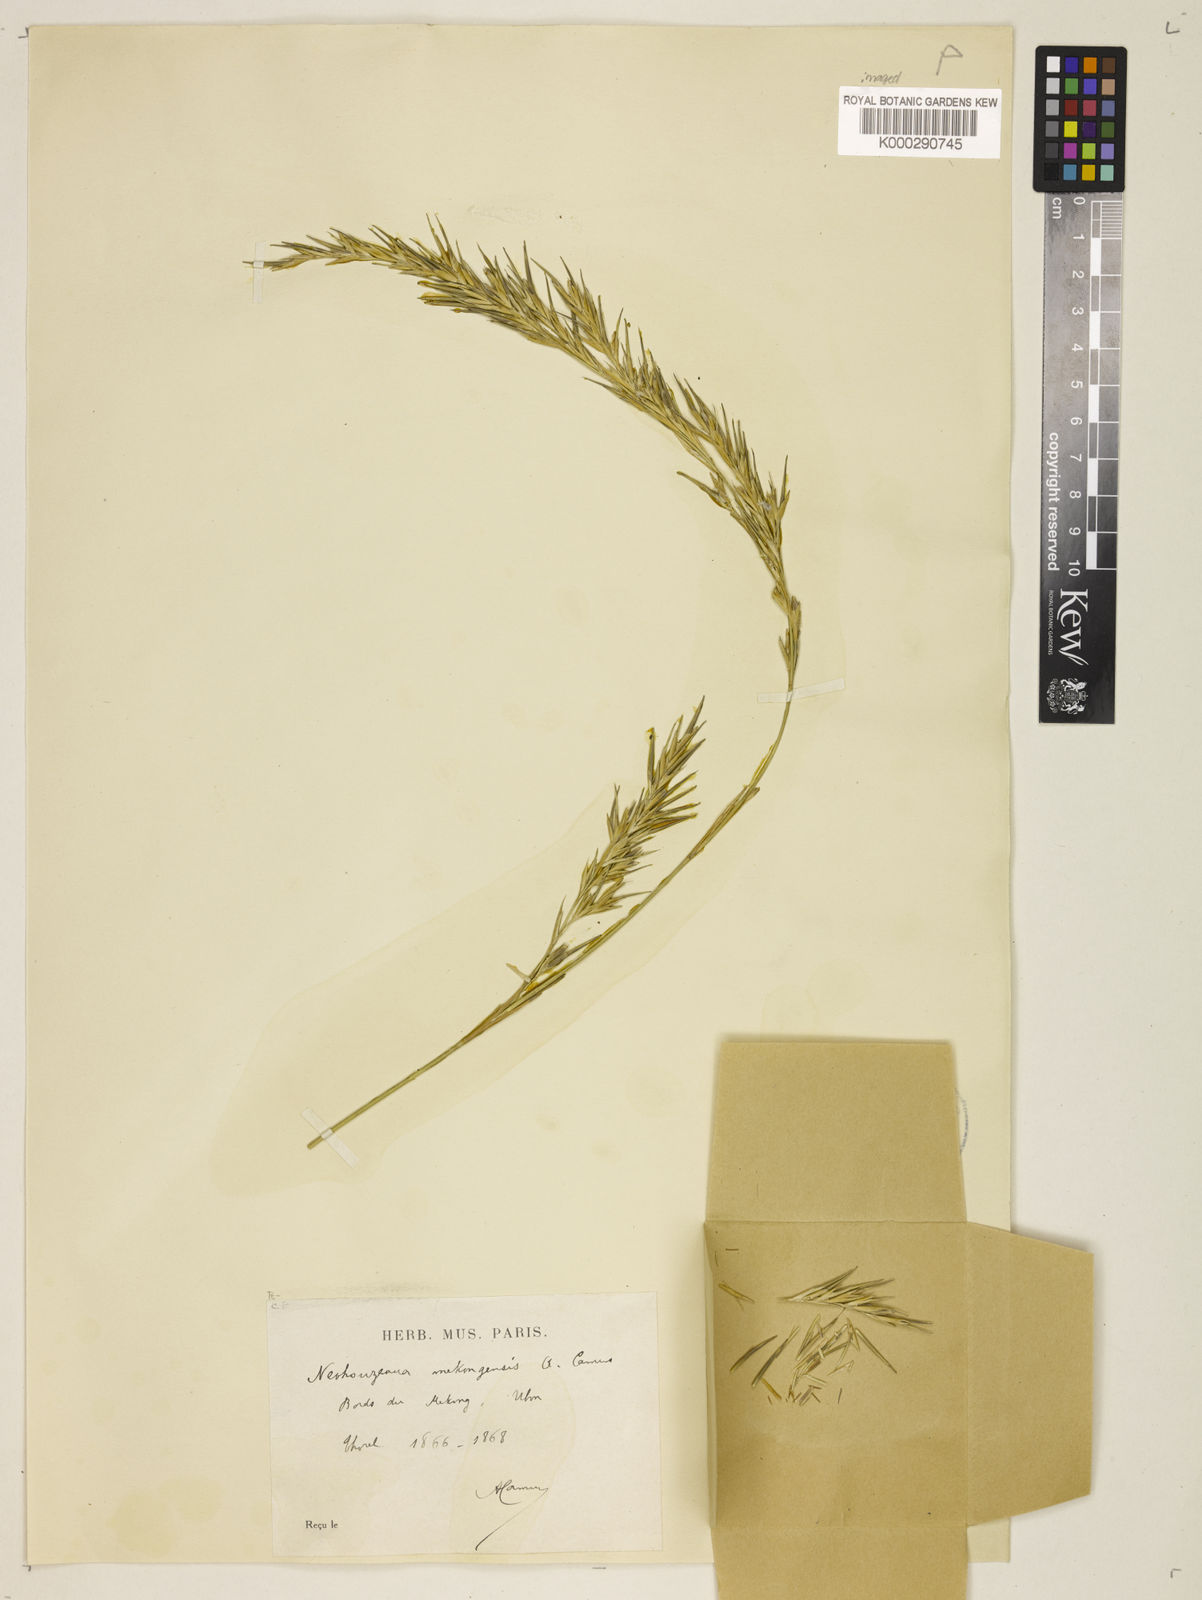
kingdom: Plantae
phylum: Tracheophyta
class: Liliopsida
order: Poales
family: Poaceae
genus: Schizostachyum
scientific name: Schizostachyum mekongensis
